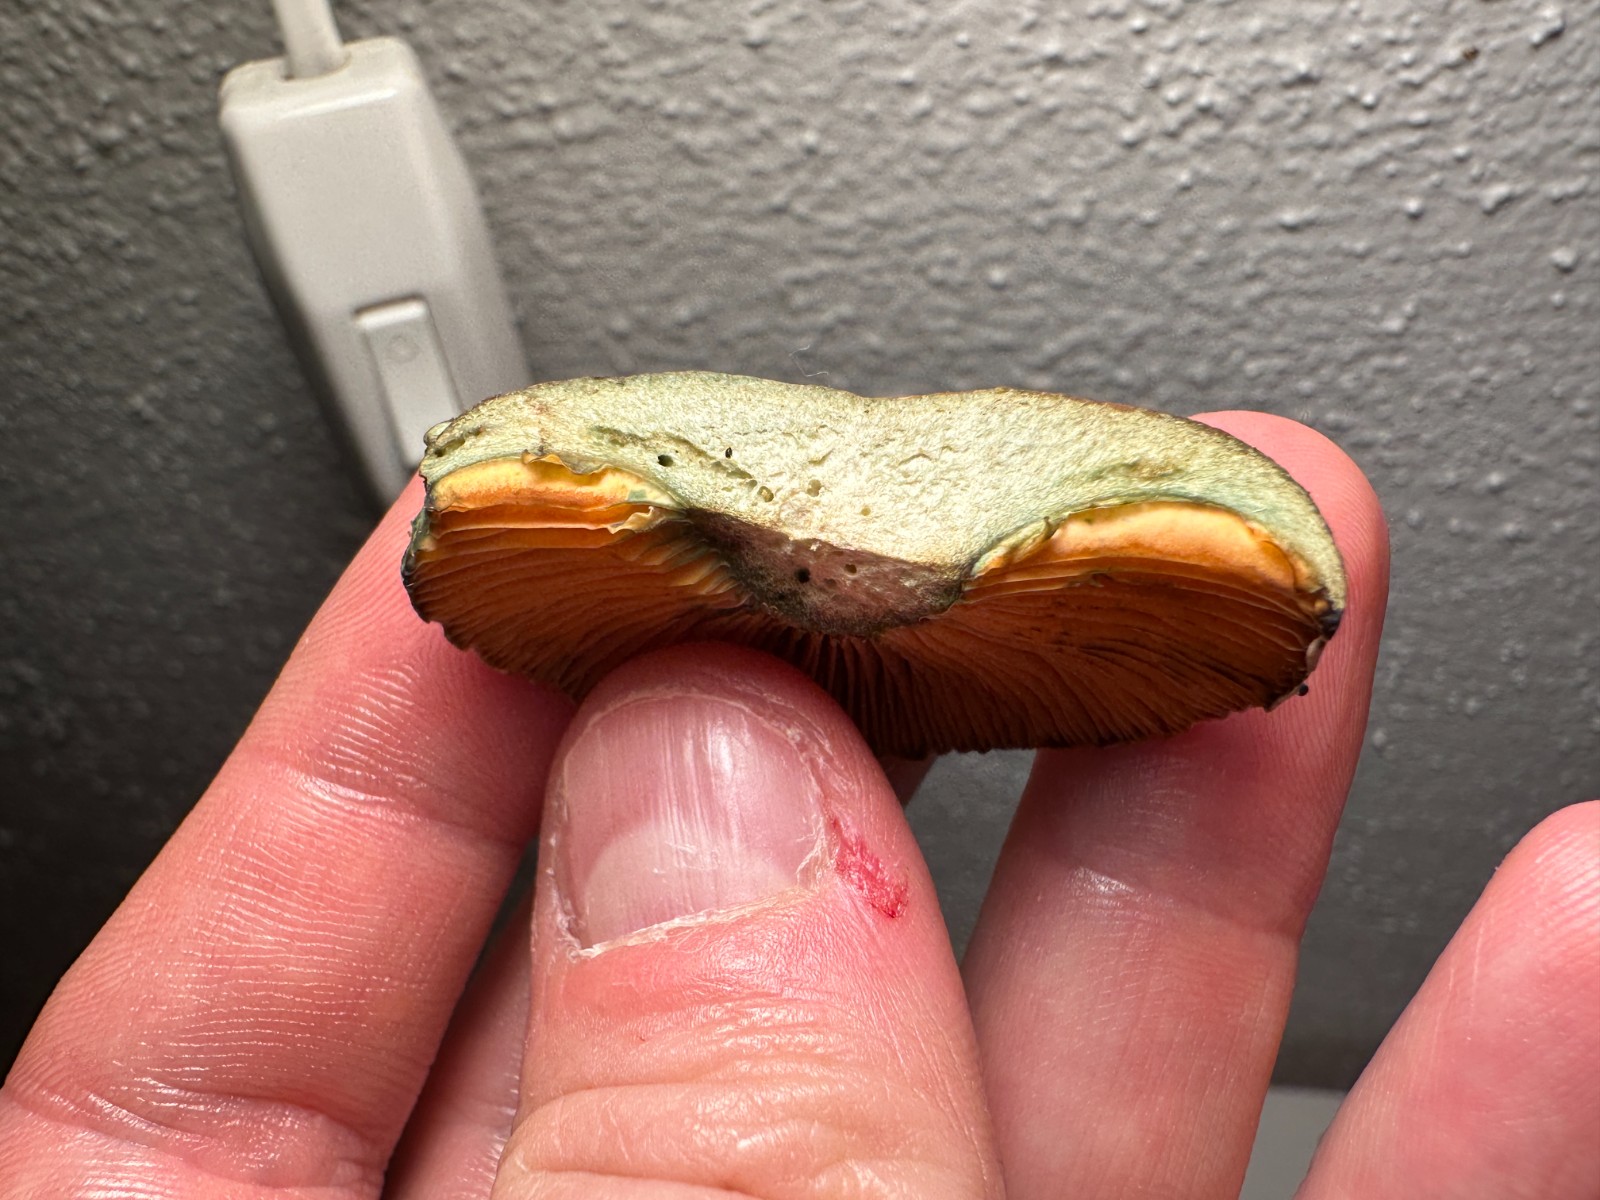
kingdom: Fungi
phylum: Basidiomycota
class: Agaricomycetes
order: Russulales
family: Russulaceae
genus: Lactarius
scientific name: Lactarius quieticolor
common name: tvefarvet mælkehat
